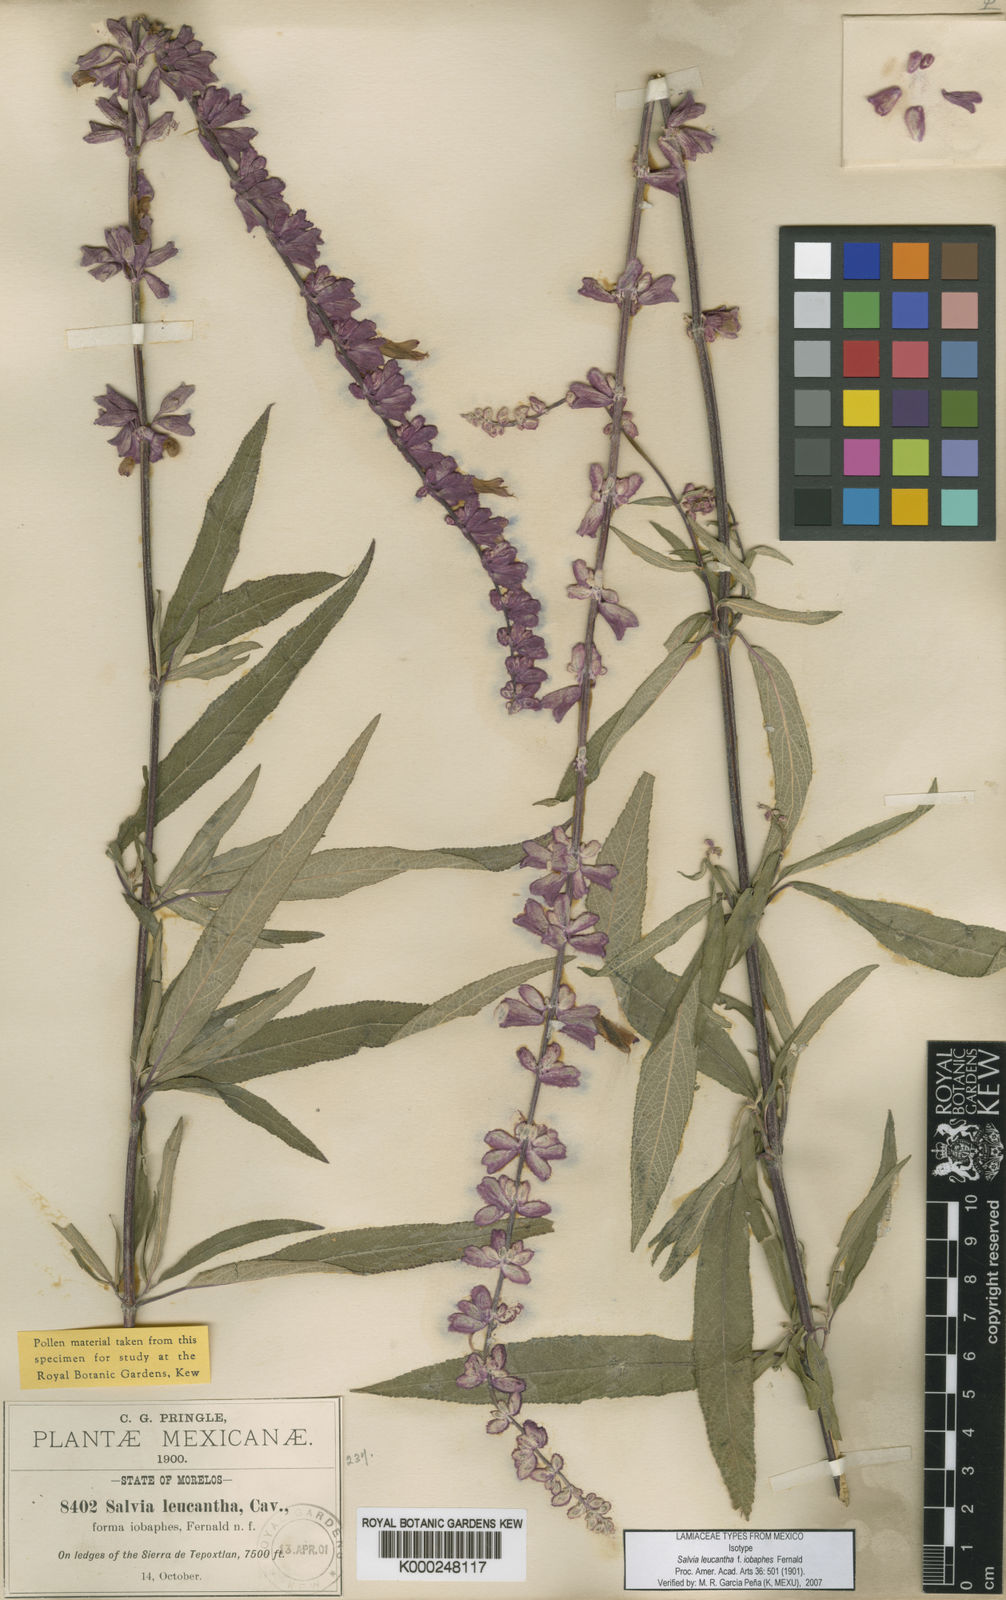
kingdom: Plantae
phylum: Tracheophyta
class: Magnoliopsida
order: Lamiales
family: Lamiaceae
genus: Salvia
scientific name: Salvia leucantha
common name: Mexican bush sage
